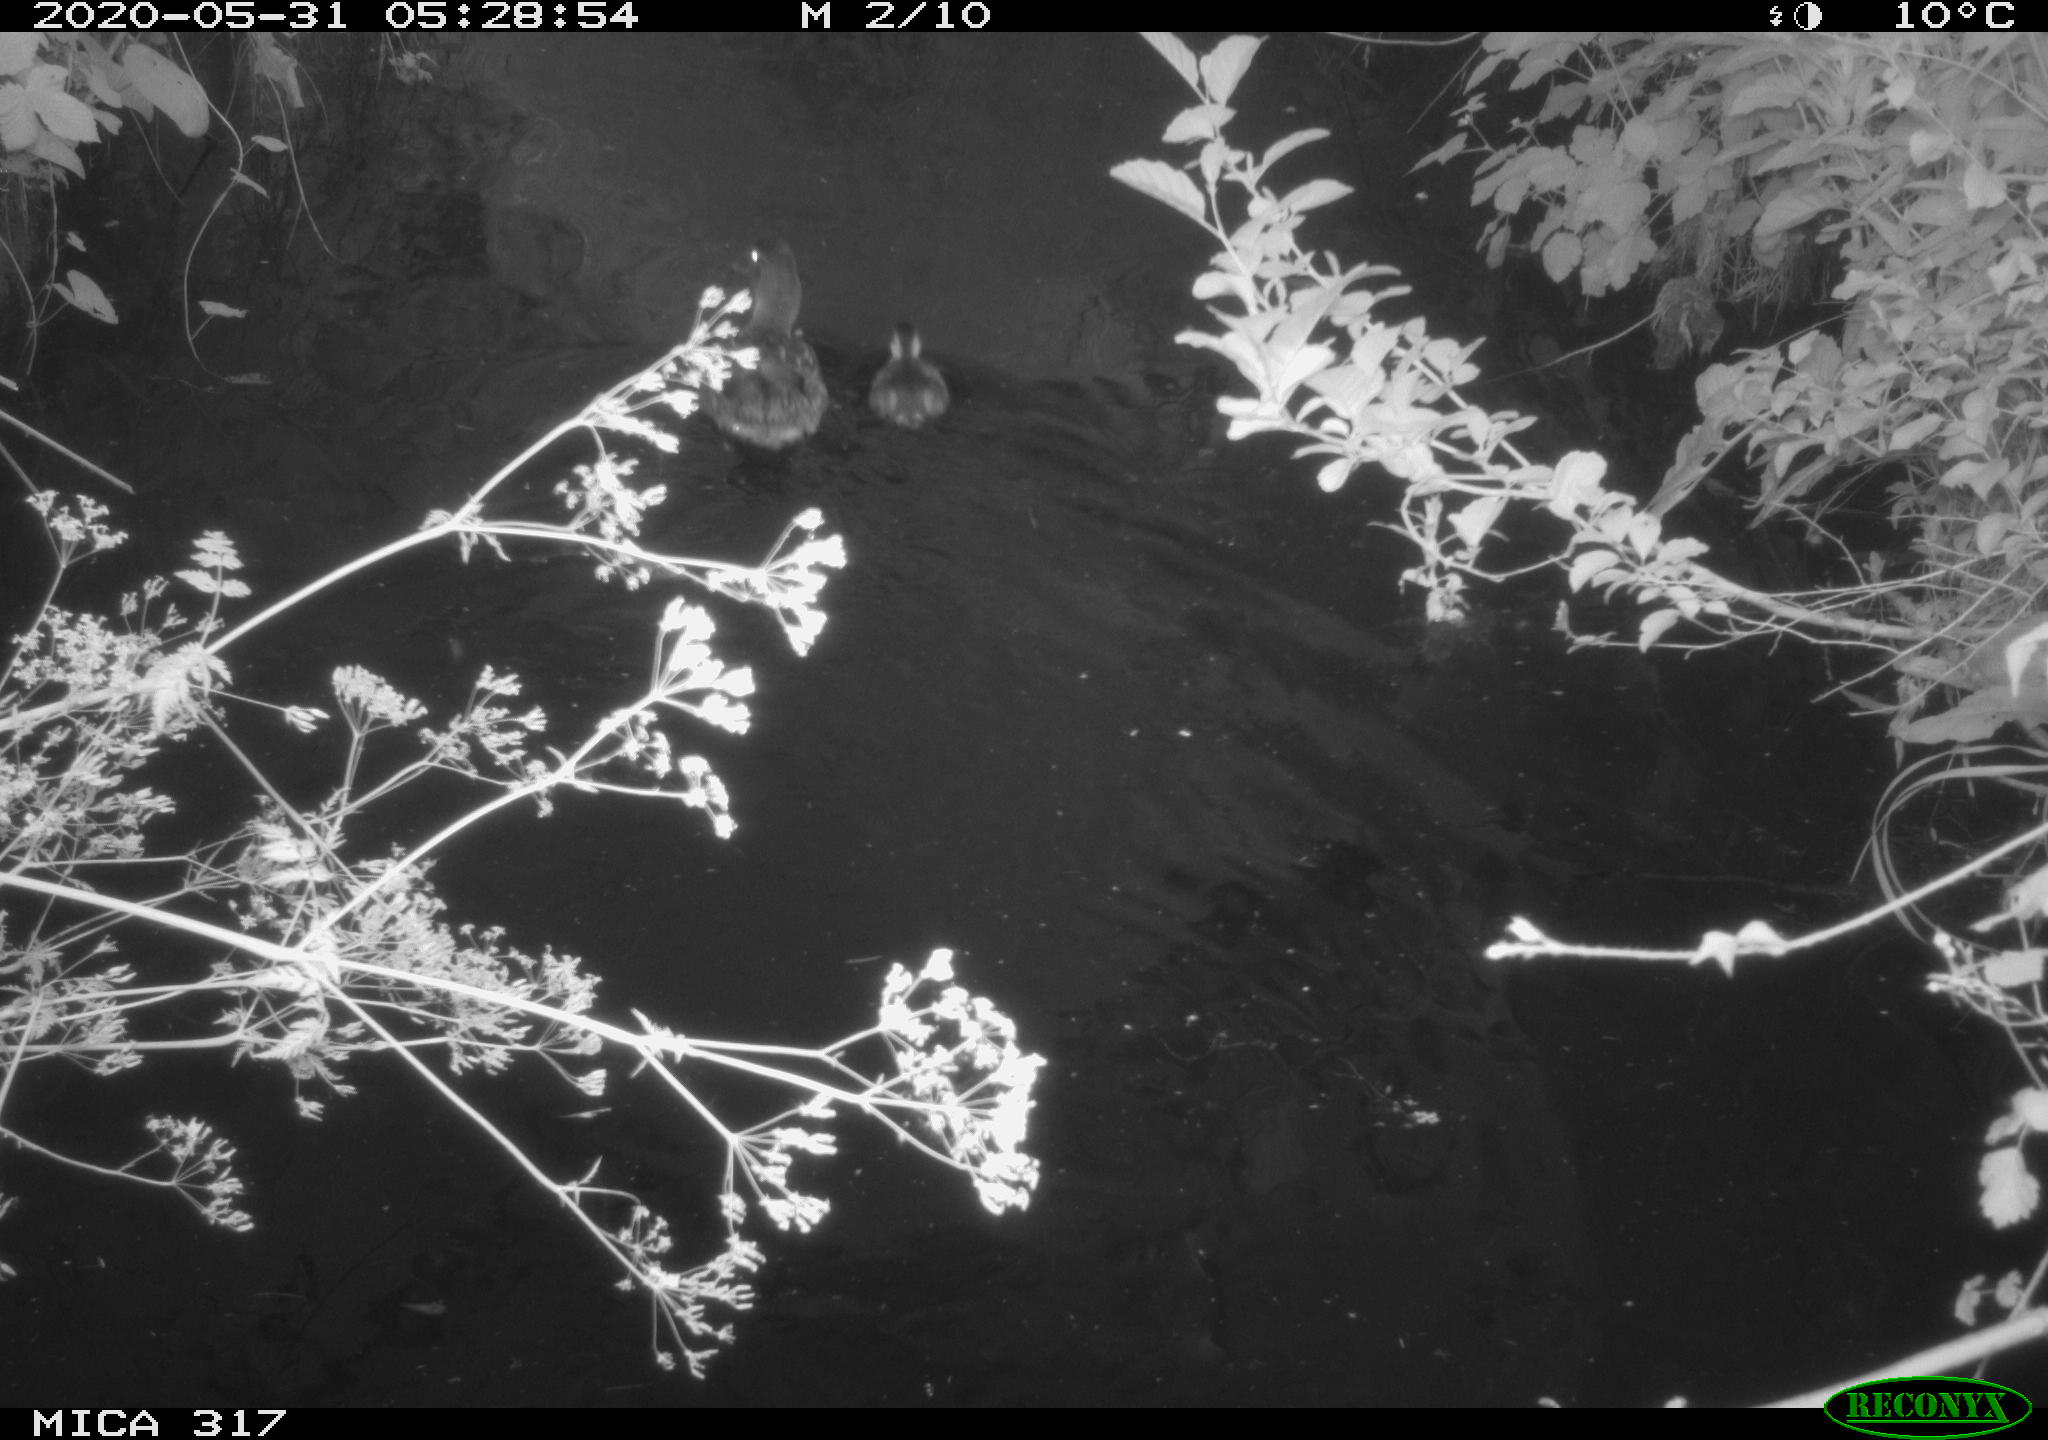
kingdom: Animalia
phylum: Chordata
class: Aves
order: Anseriformes
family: Anatidae
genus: Anas
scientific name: Anas platyrhynchos
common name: Mallard
